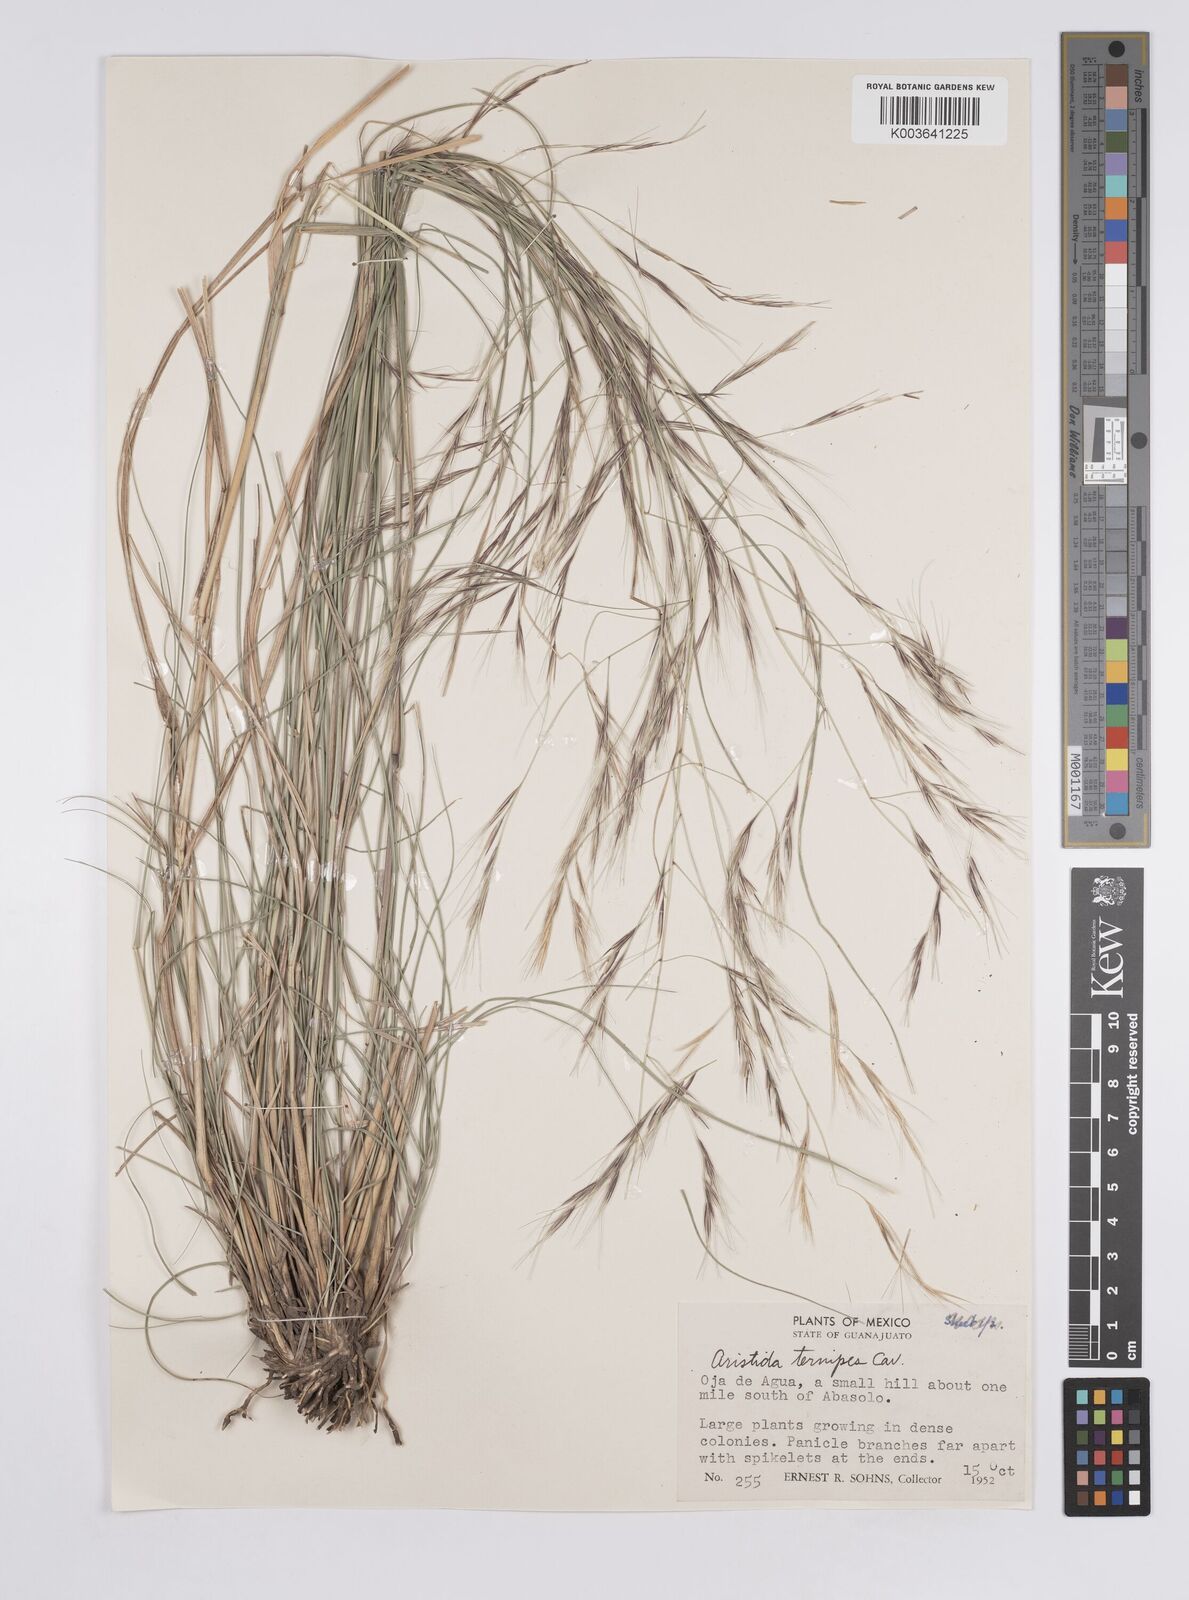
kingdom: Plantae
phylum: Tracheophyta
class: Liliopsida
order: Poales
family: Poaceae
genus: Aristida
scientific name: Aristida
